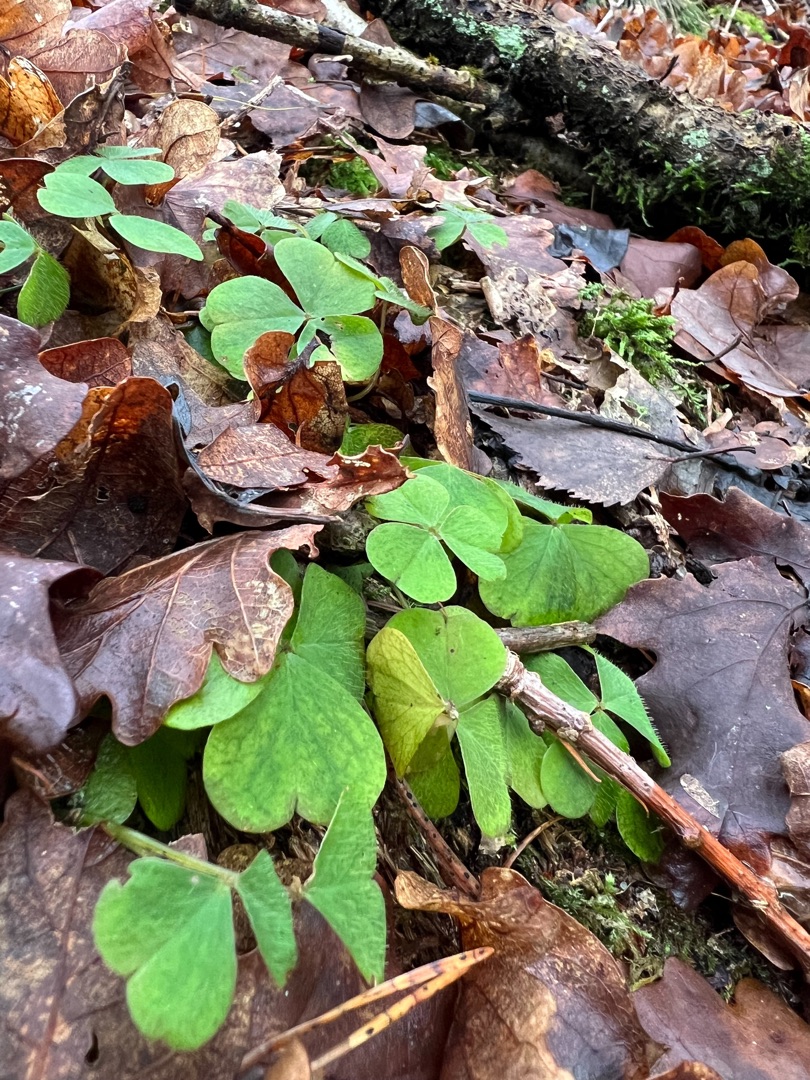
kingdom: Plantae
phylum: Tracheophyta
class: Magnoliopsida
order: Oxalidales
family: Oxalidaceae
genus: Oxalis
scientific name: Oxalis acetosella
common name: Skovsyre
